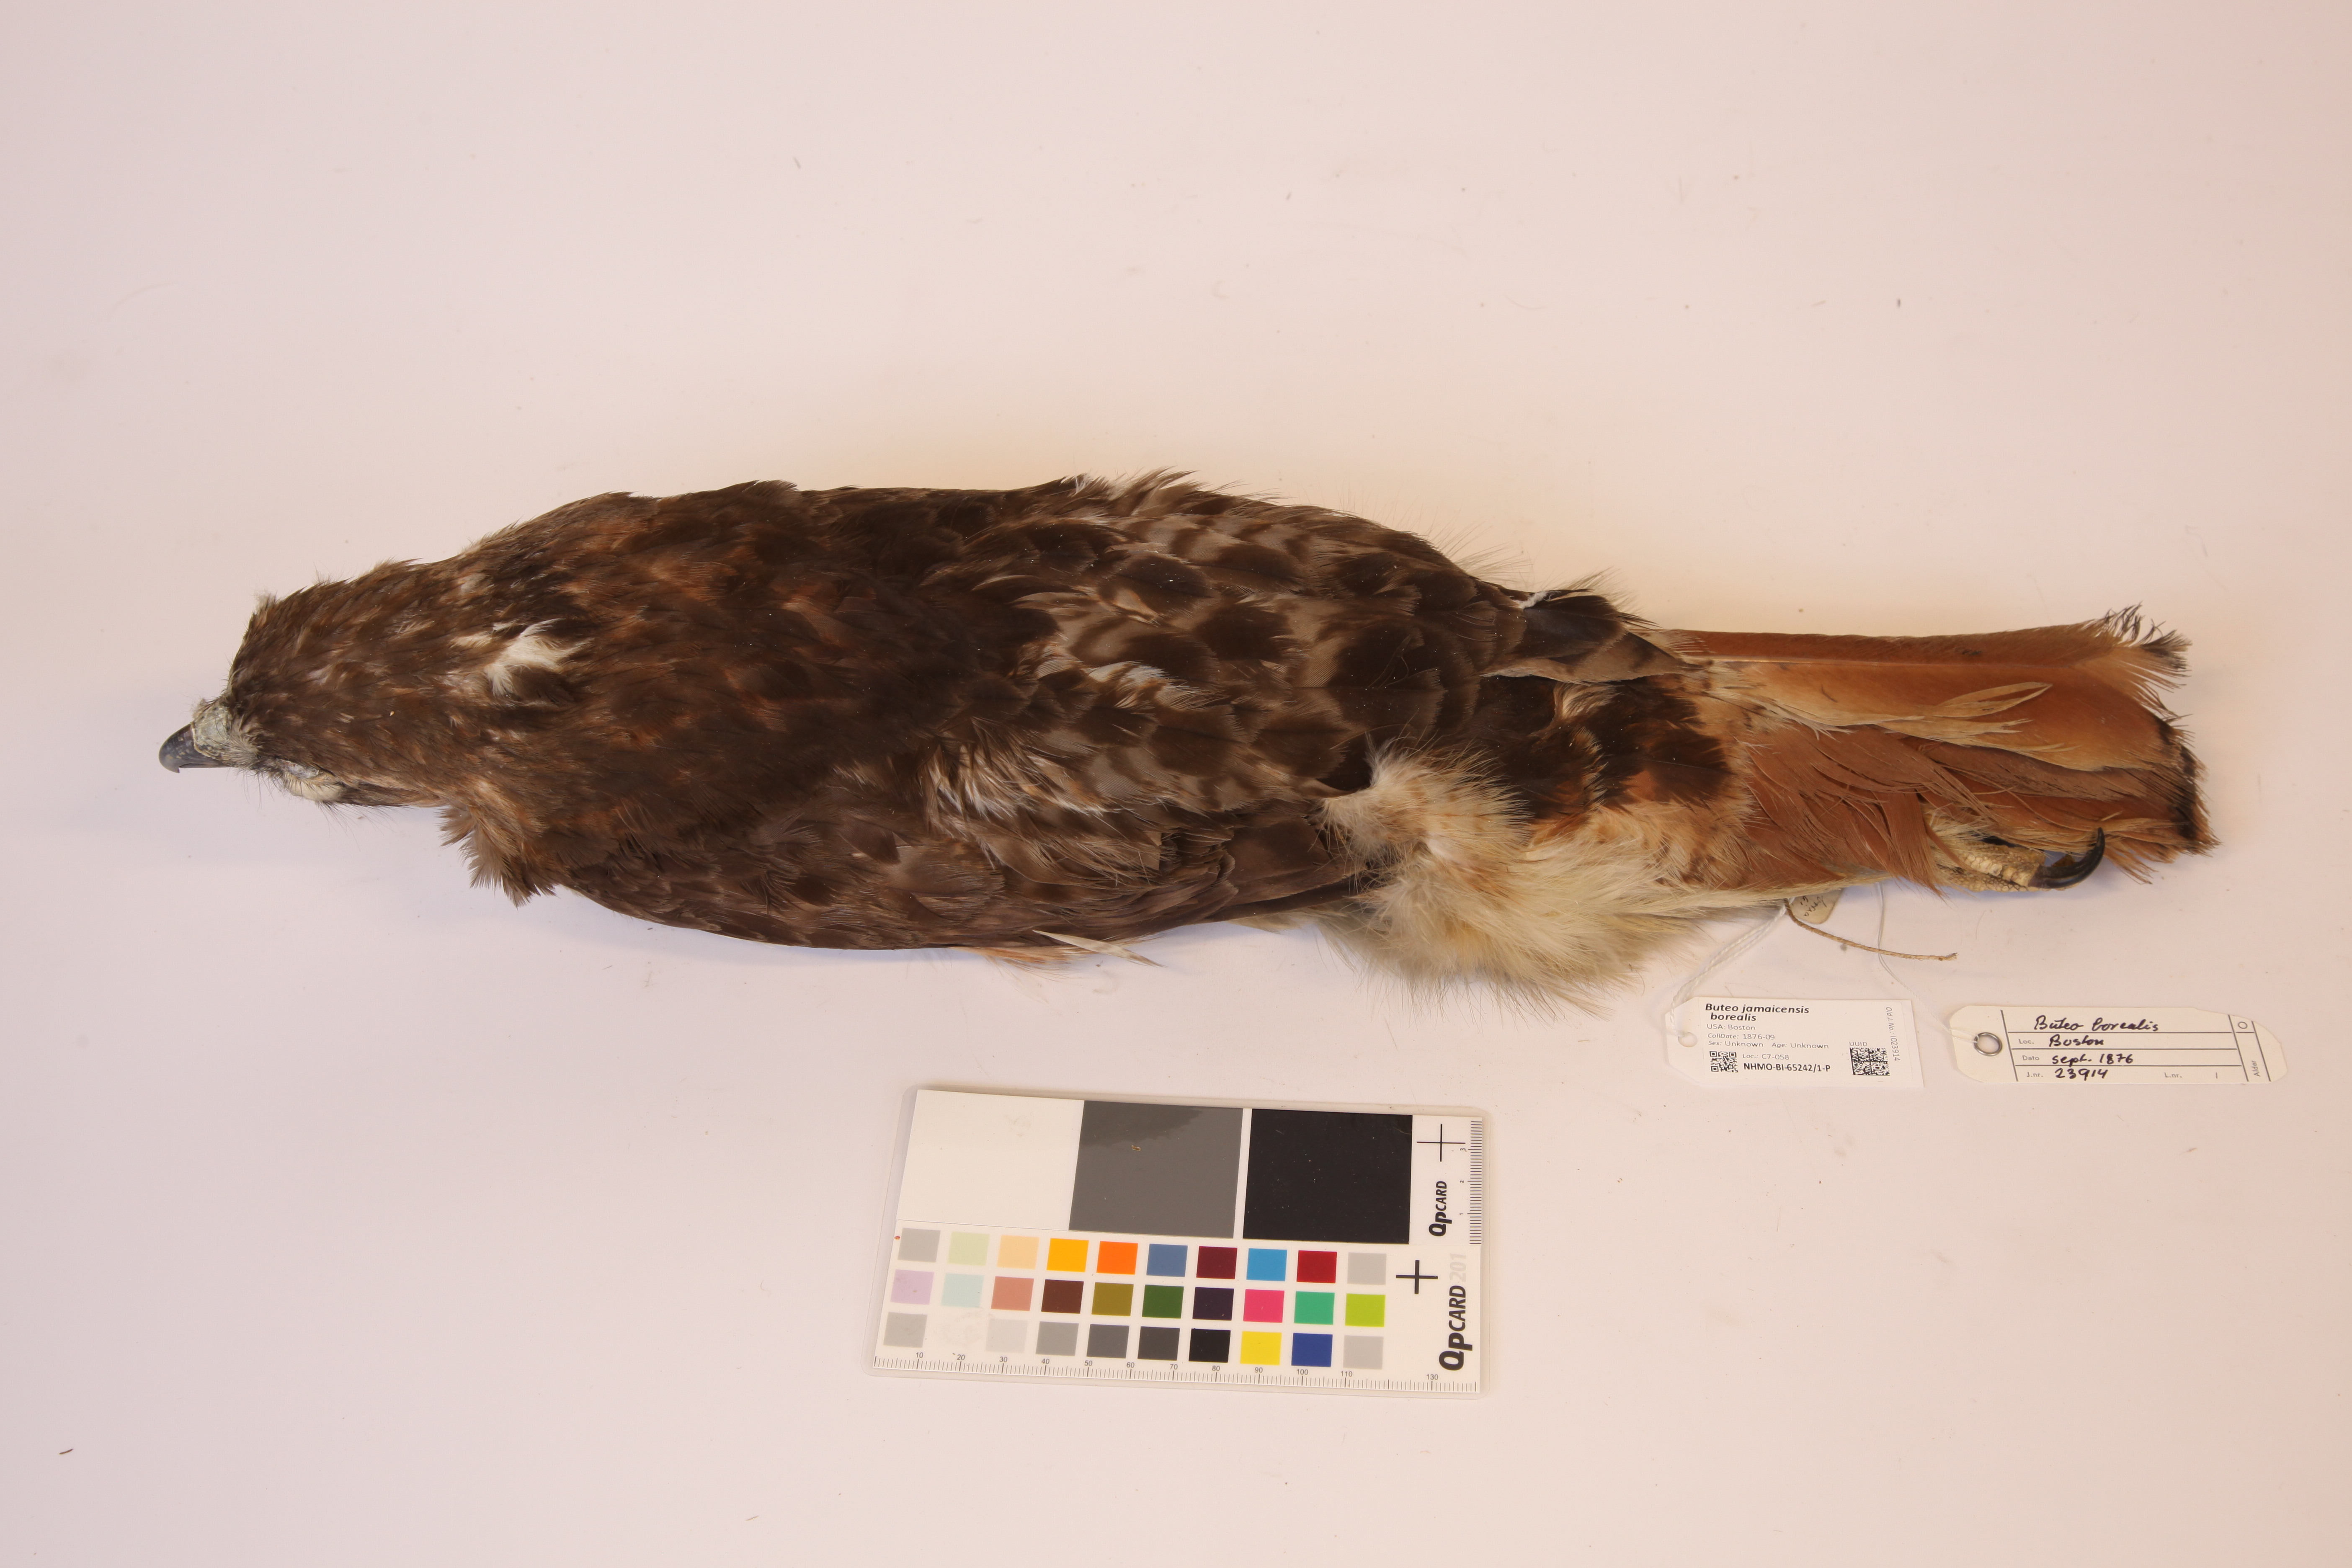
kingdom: Animalia
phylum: Chordata
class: Aves
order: Accipitriformes
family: Accipitridae
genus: Buteo
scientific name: Buteo jamaicensis
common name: Red-tailed hawk
